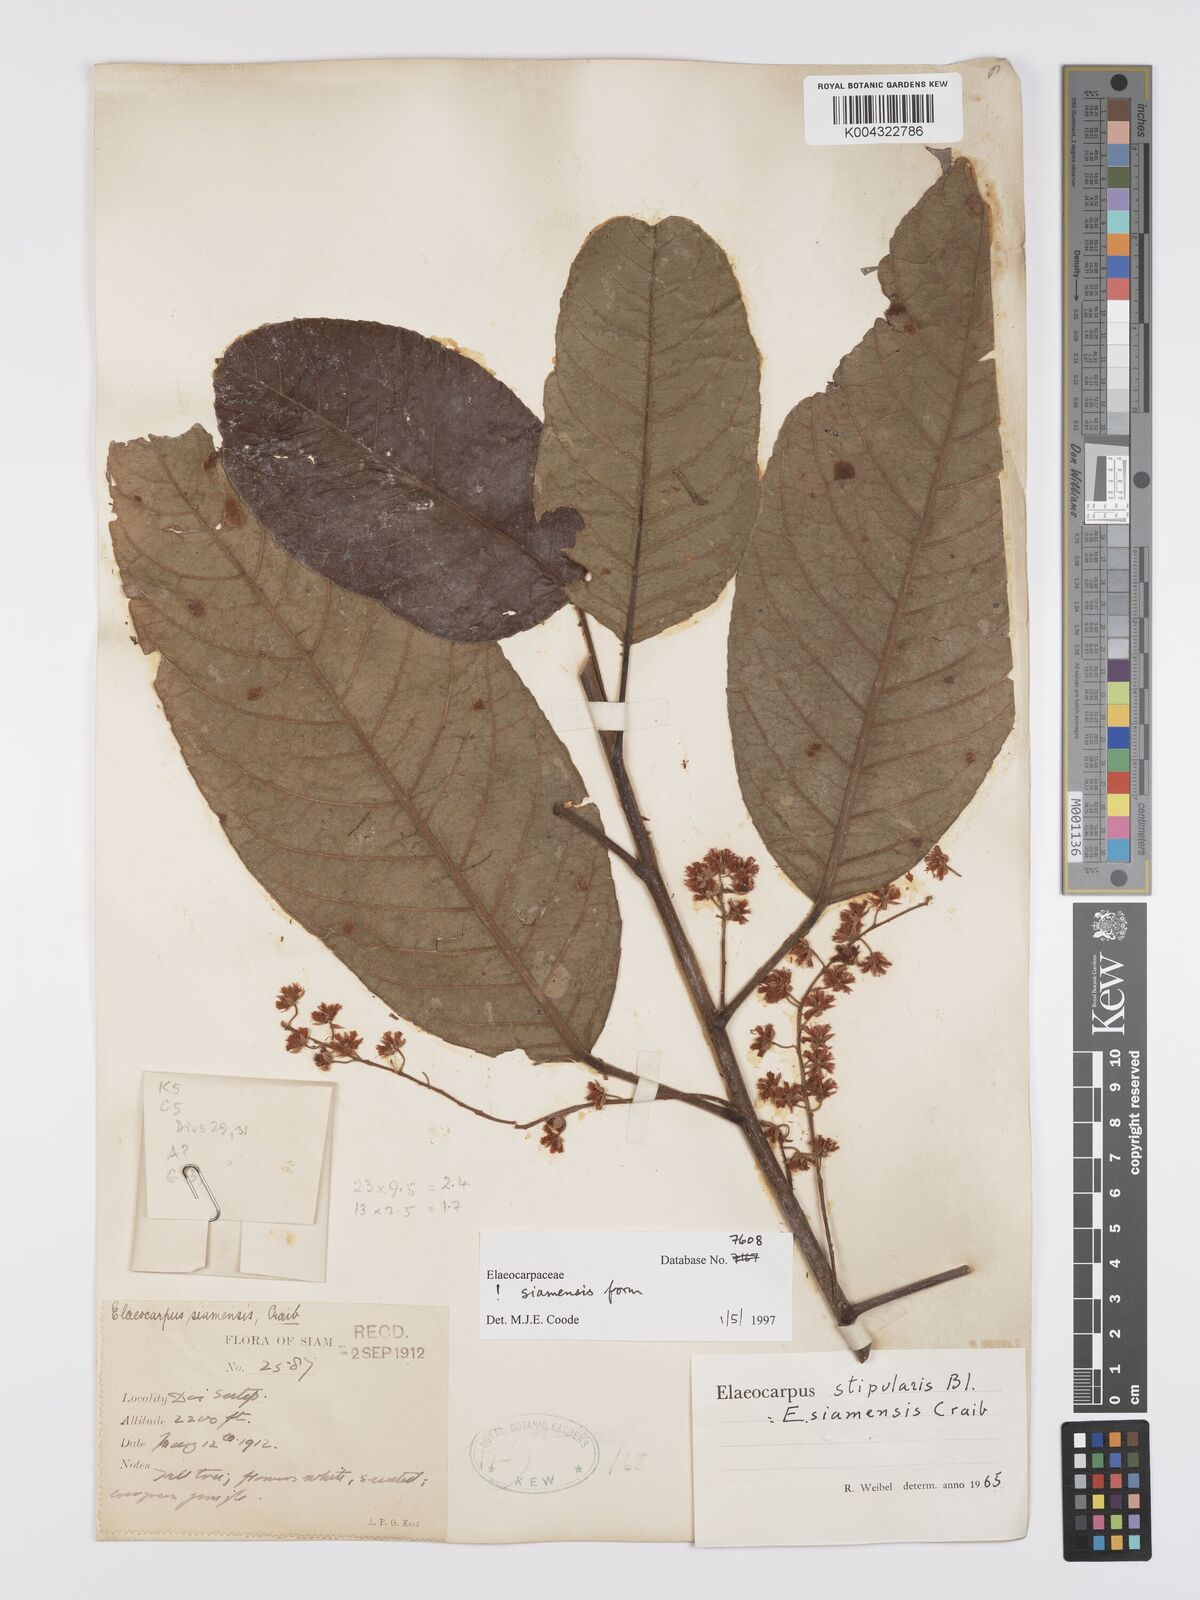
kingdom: Plantae
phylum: Tracheophyta
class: Magnoliopsida
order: Oxalidales
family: Elaeocarpaceae
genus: Elaeocarpus
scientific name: Elaeocarpus stipularis
